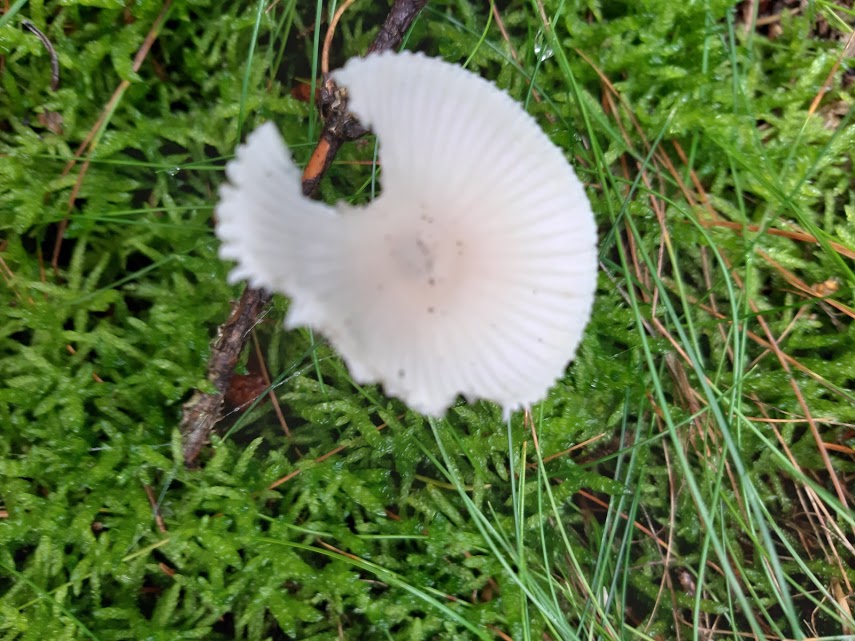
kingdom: Fungi
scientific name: Fungi
